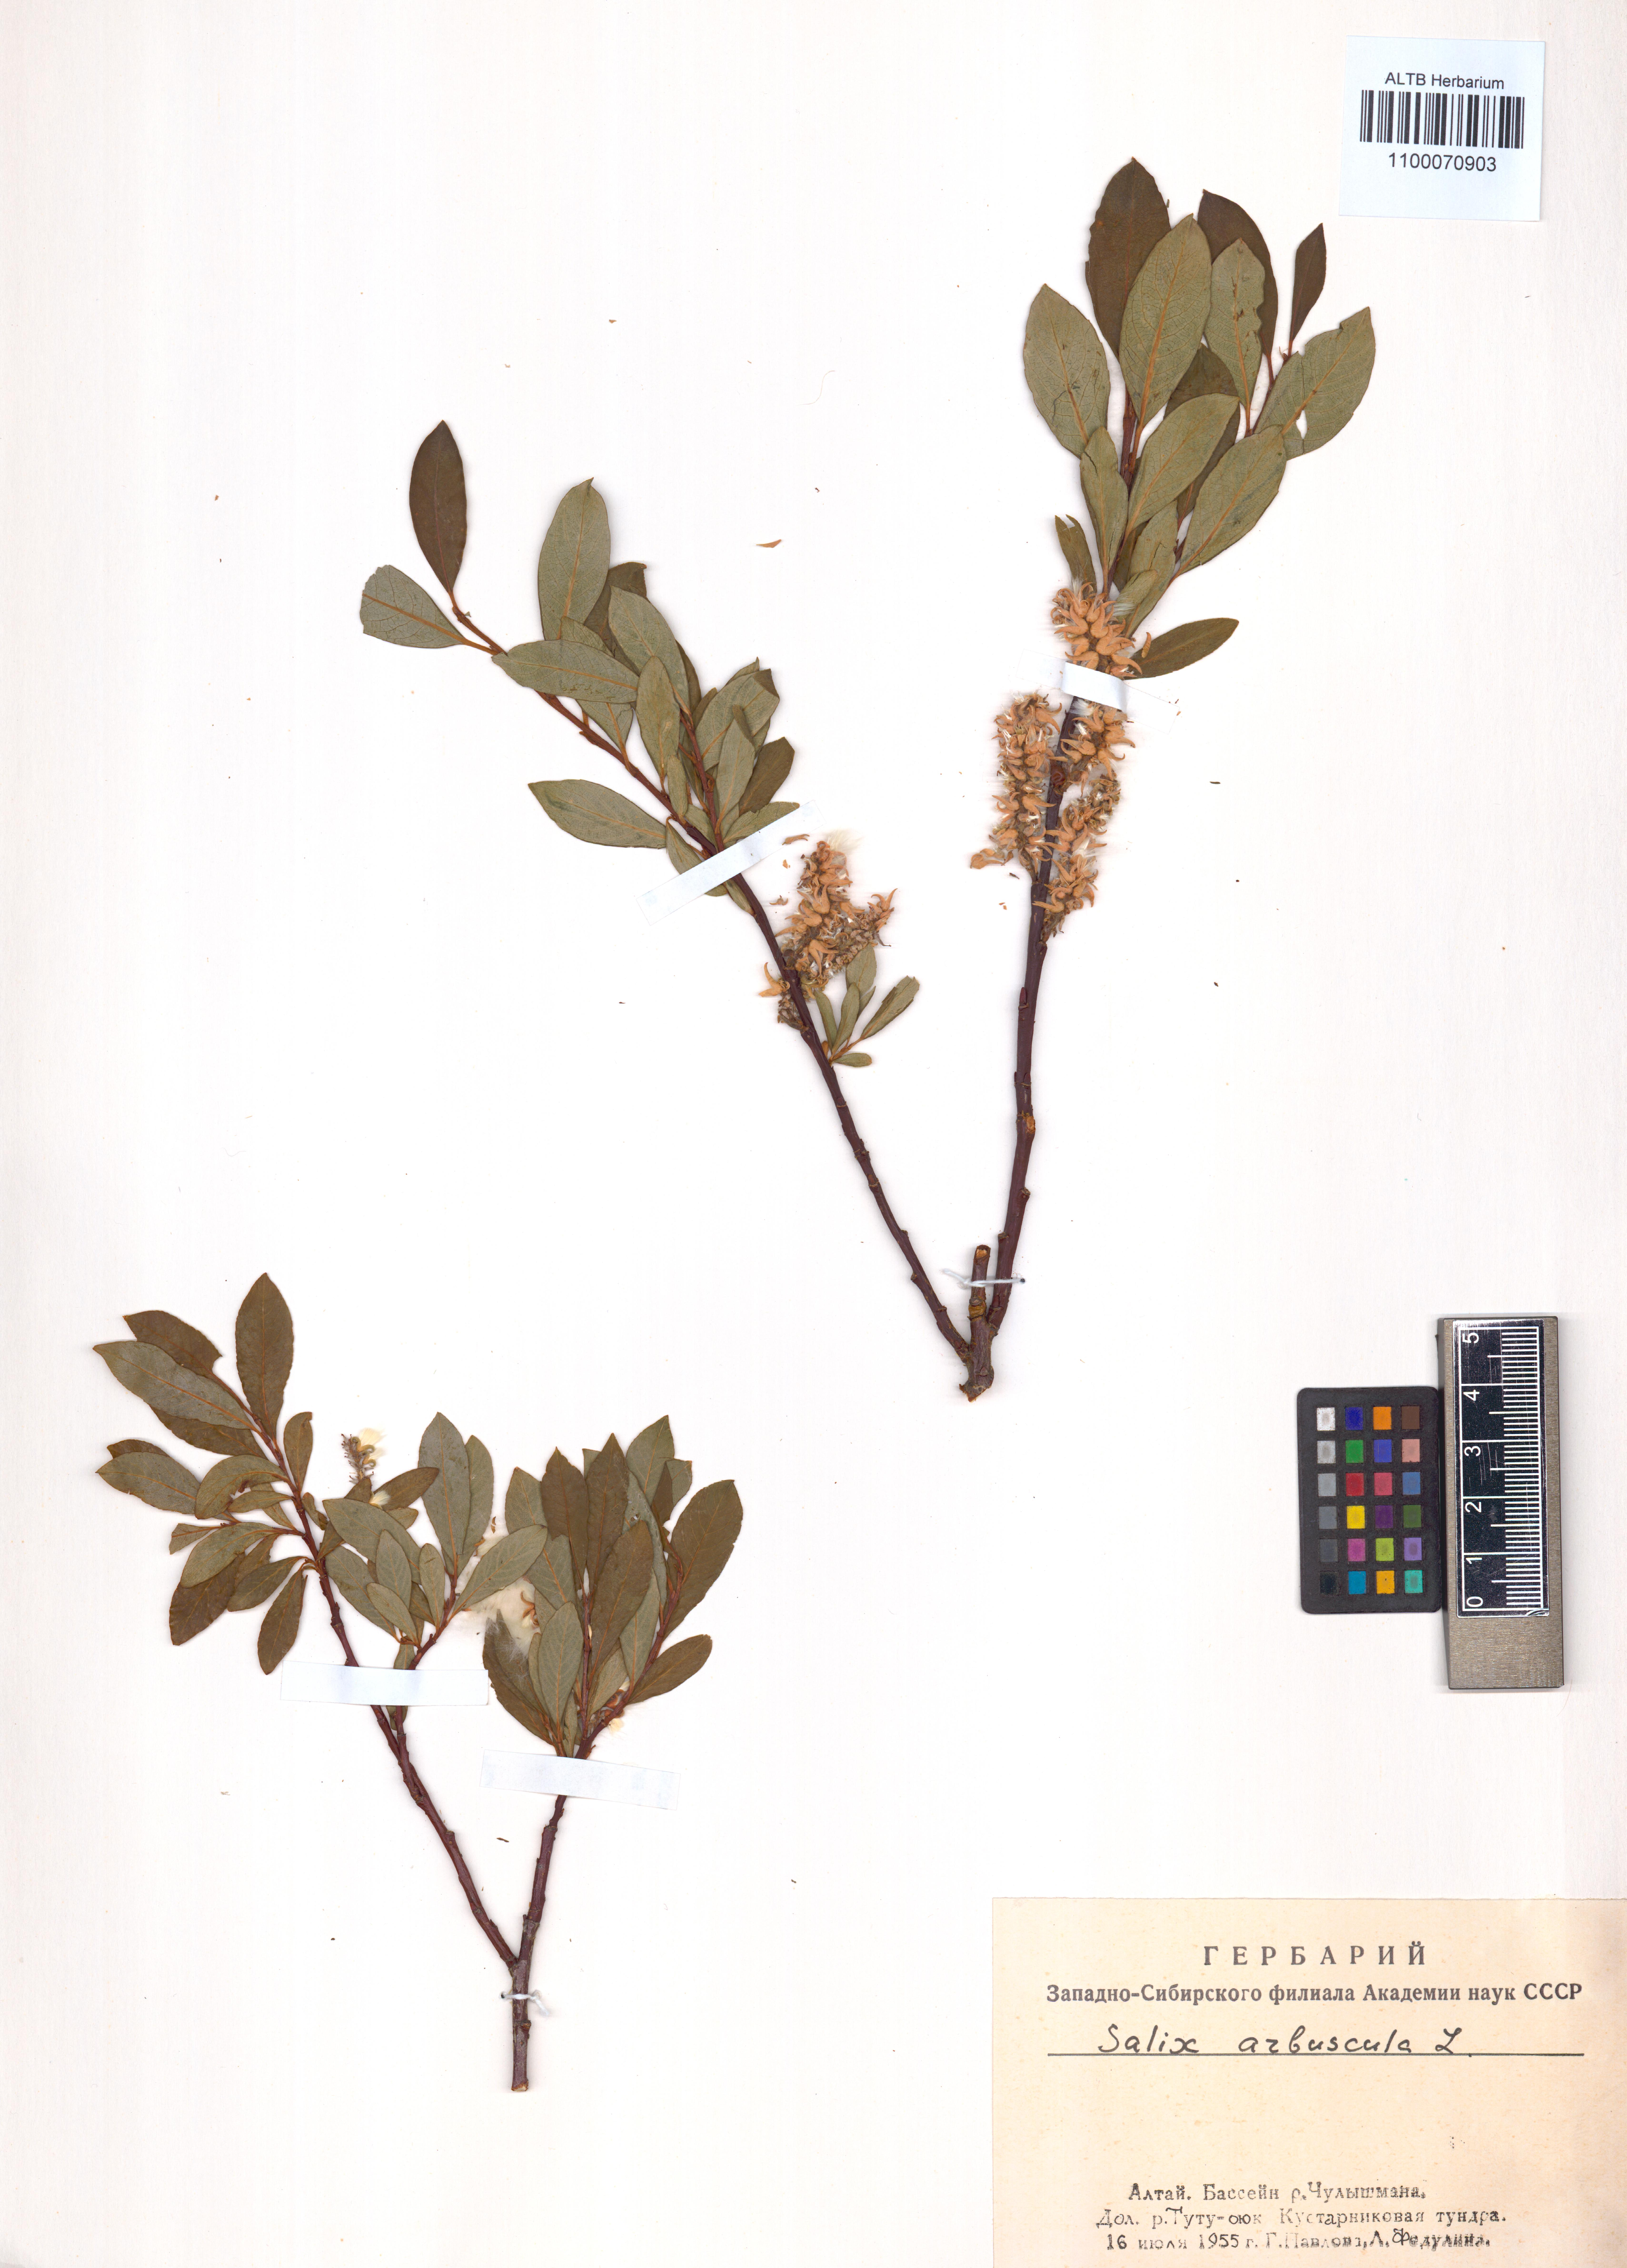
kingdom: Plantae
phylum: Tracheophyta
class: Magnoliopsida
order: Malpighiales
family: Salicaceae
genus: Salix
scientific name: Salix arbuscula
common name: Mountain willow
